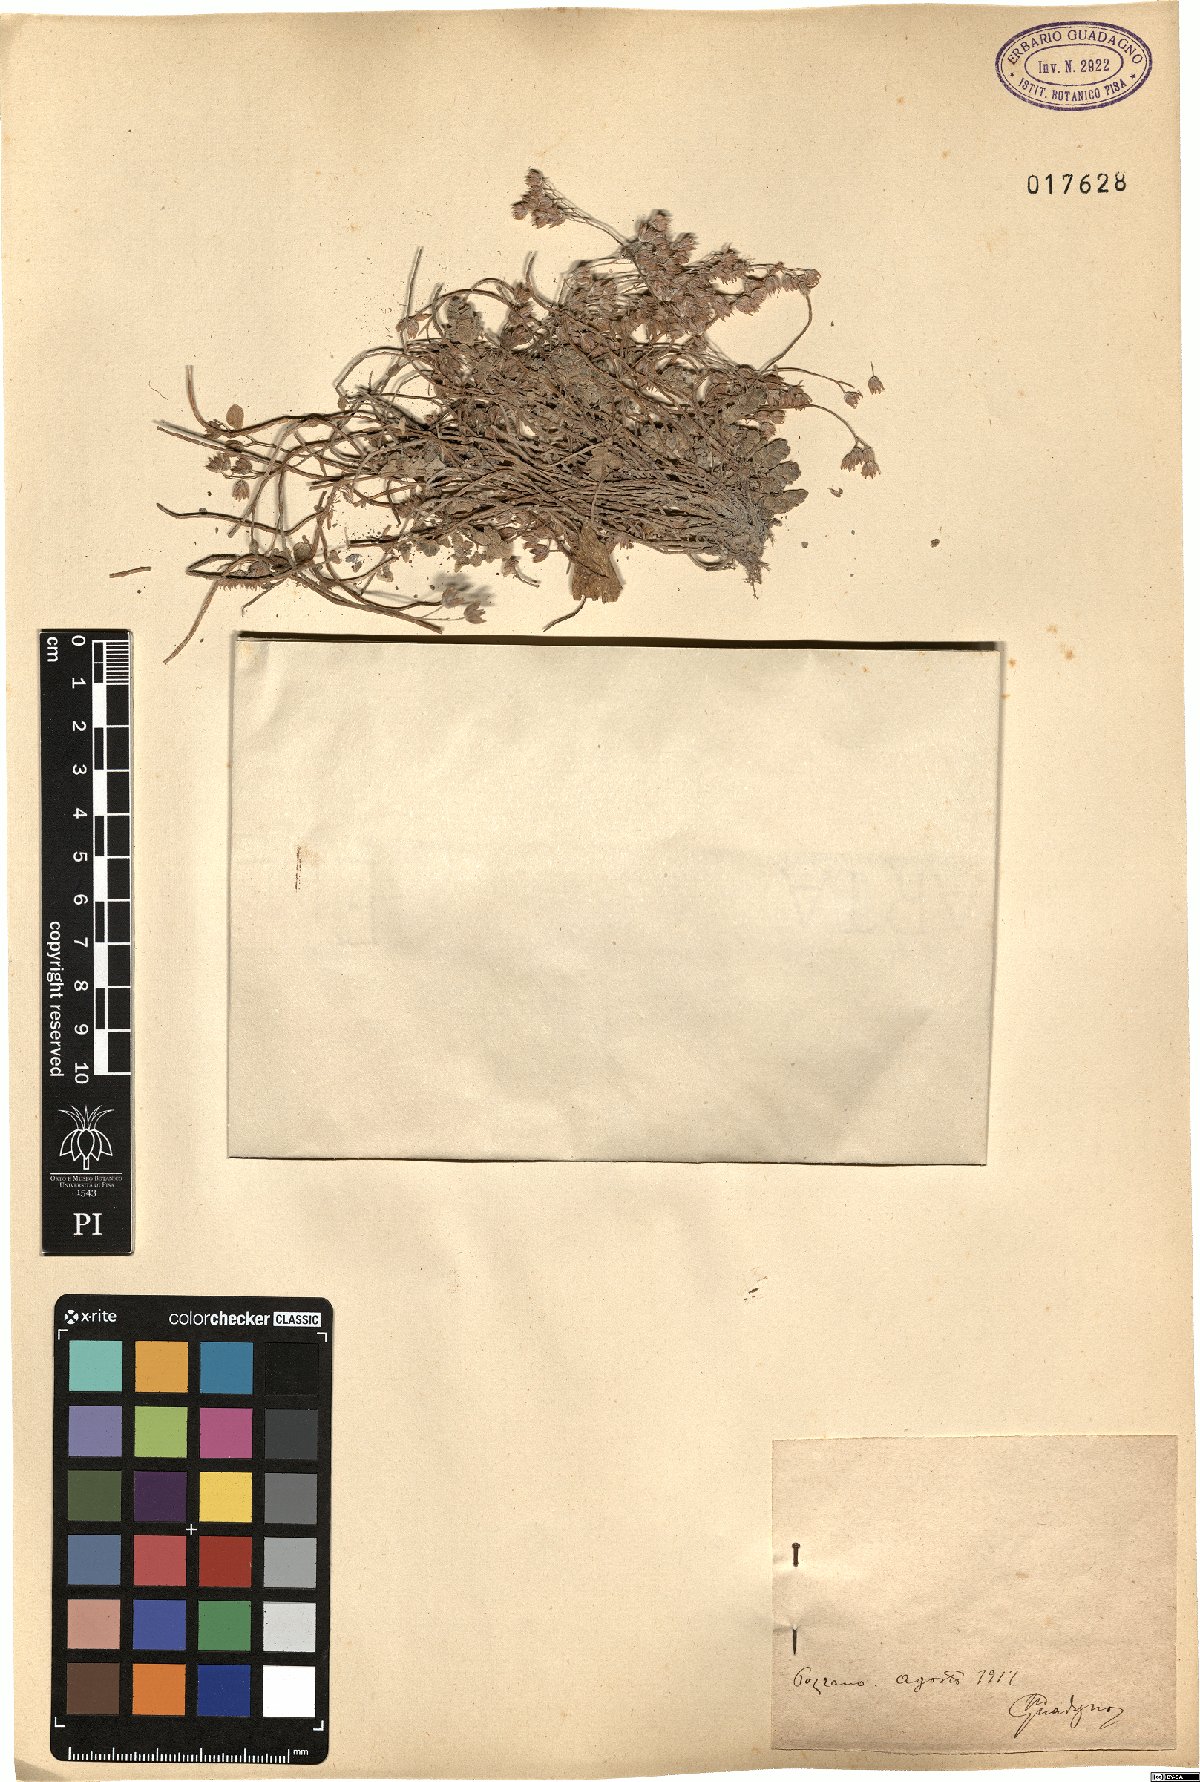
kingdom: Plantae
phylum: Tracheophyta
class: Magnoliopsida
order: Saxifragales
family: Crassulaceae
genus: Sedum
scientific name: Sedum
